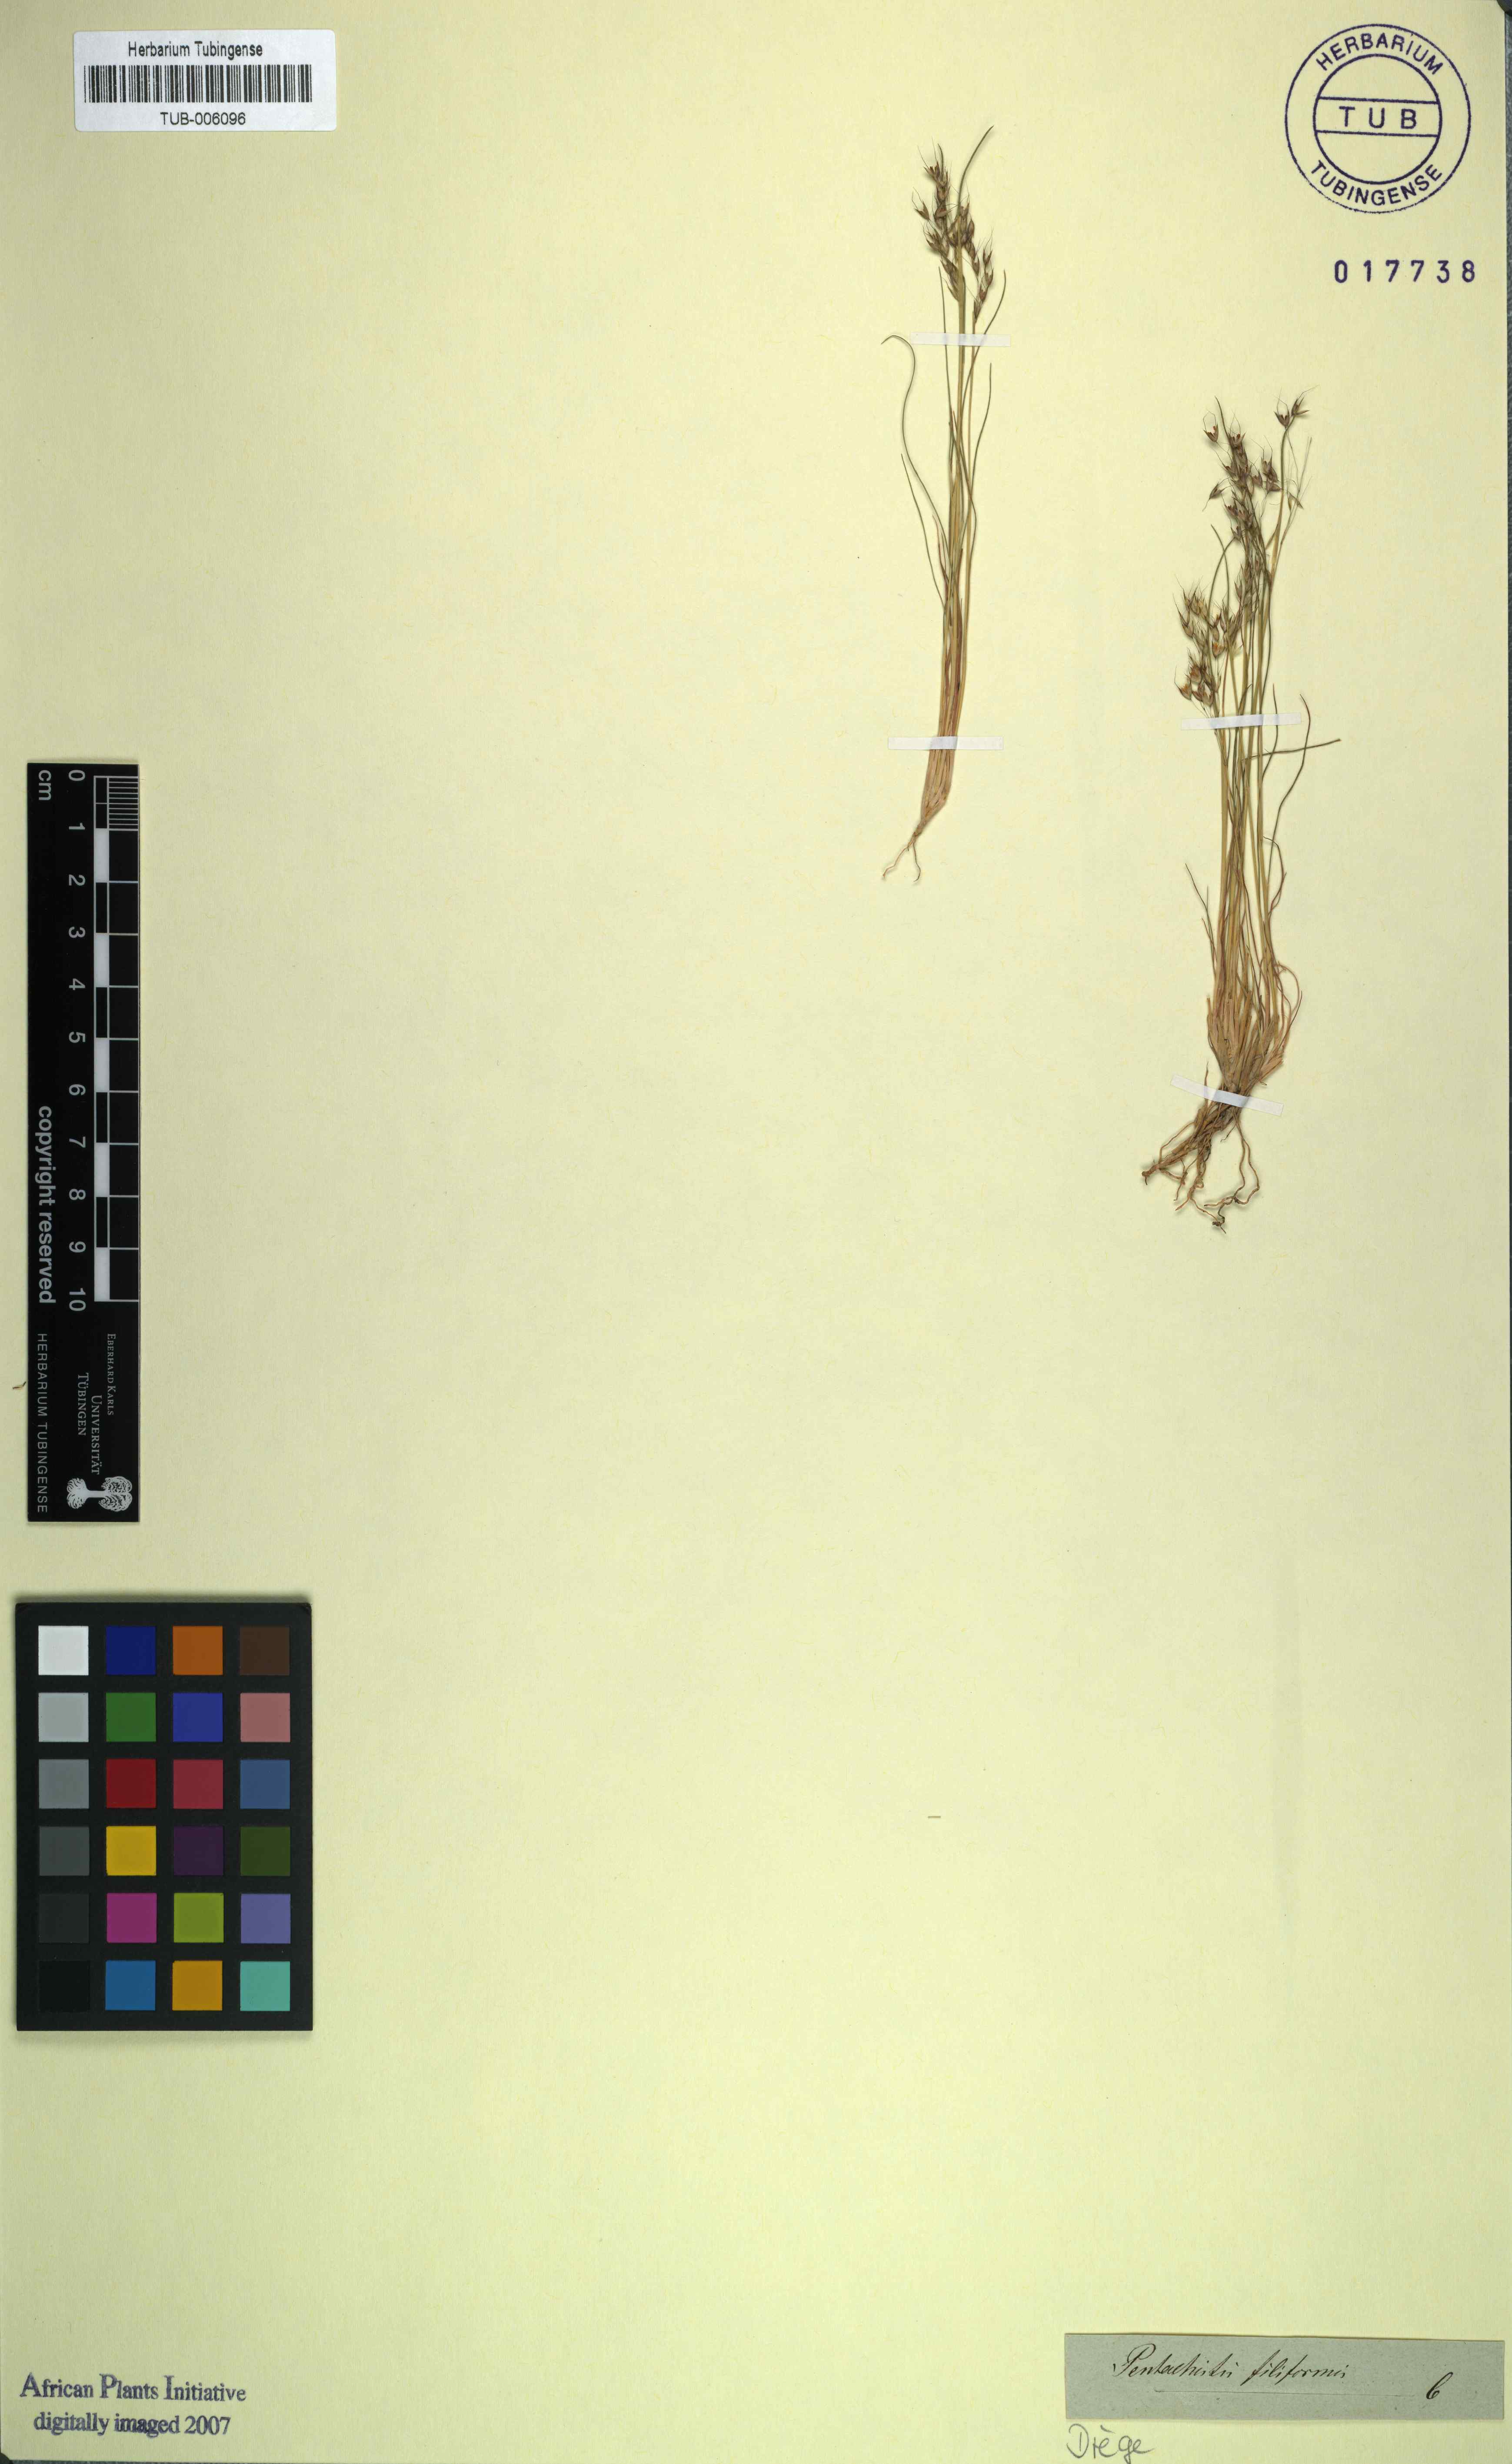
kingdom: Plantae
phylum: Tracheophyta
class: Liliopsida
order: Poales
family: Poaceae
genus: Pentameris
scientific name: Pentameris pallida
